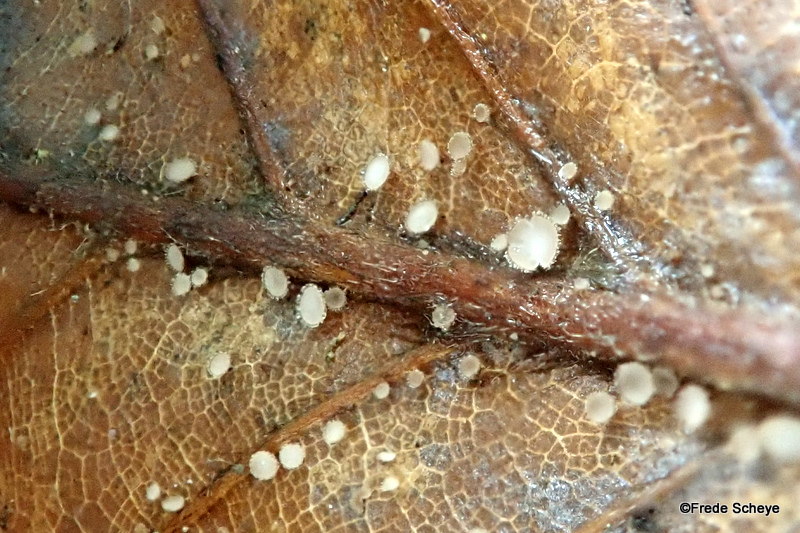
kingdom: Fungi
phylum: Ascomycota
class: Leotiomycetes
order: Helotiales
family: Lachnaceae
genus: Brunnipila
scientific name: Brunnipila fuscescens
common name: bøge-frynseskive
